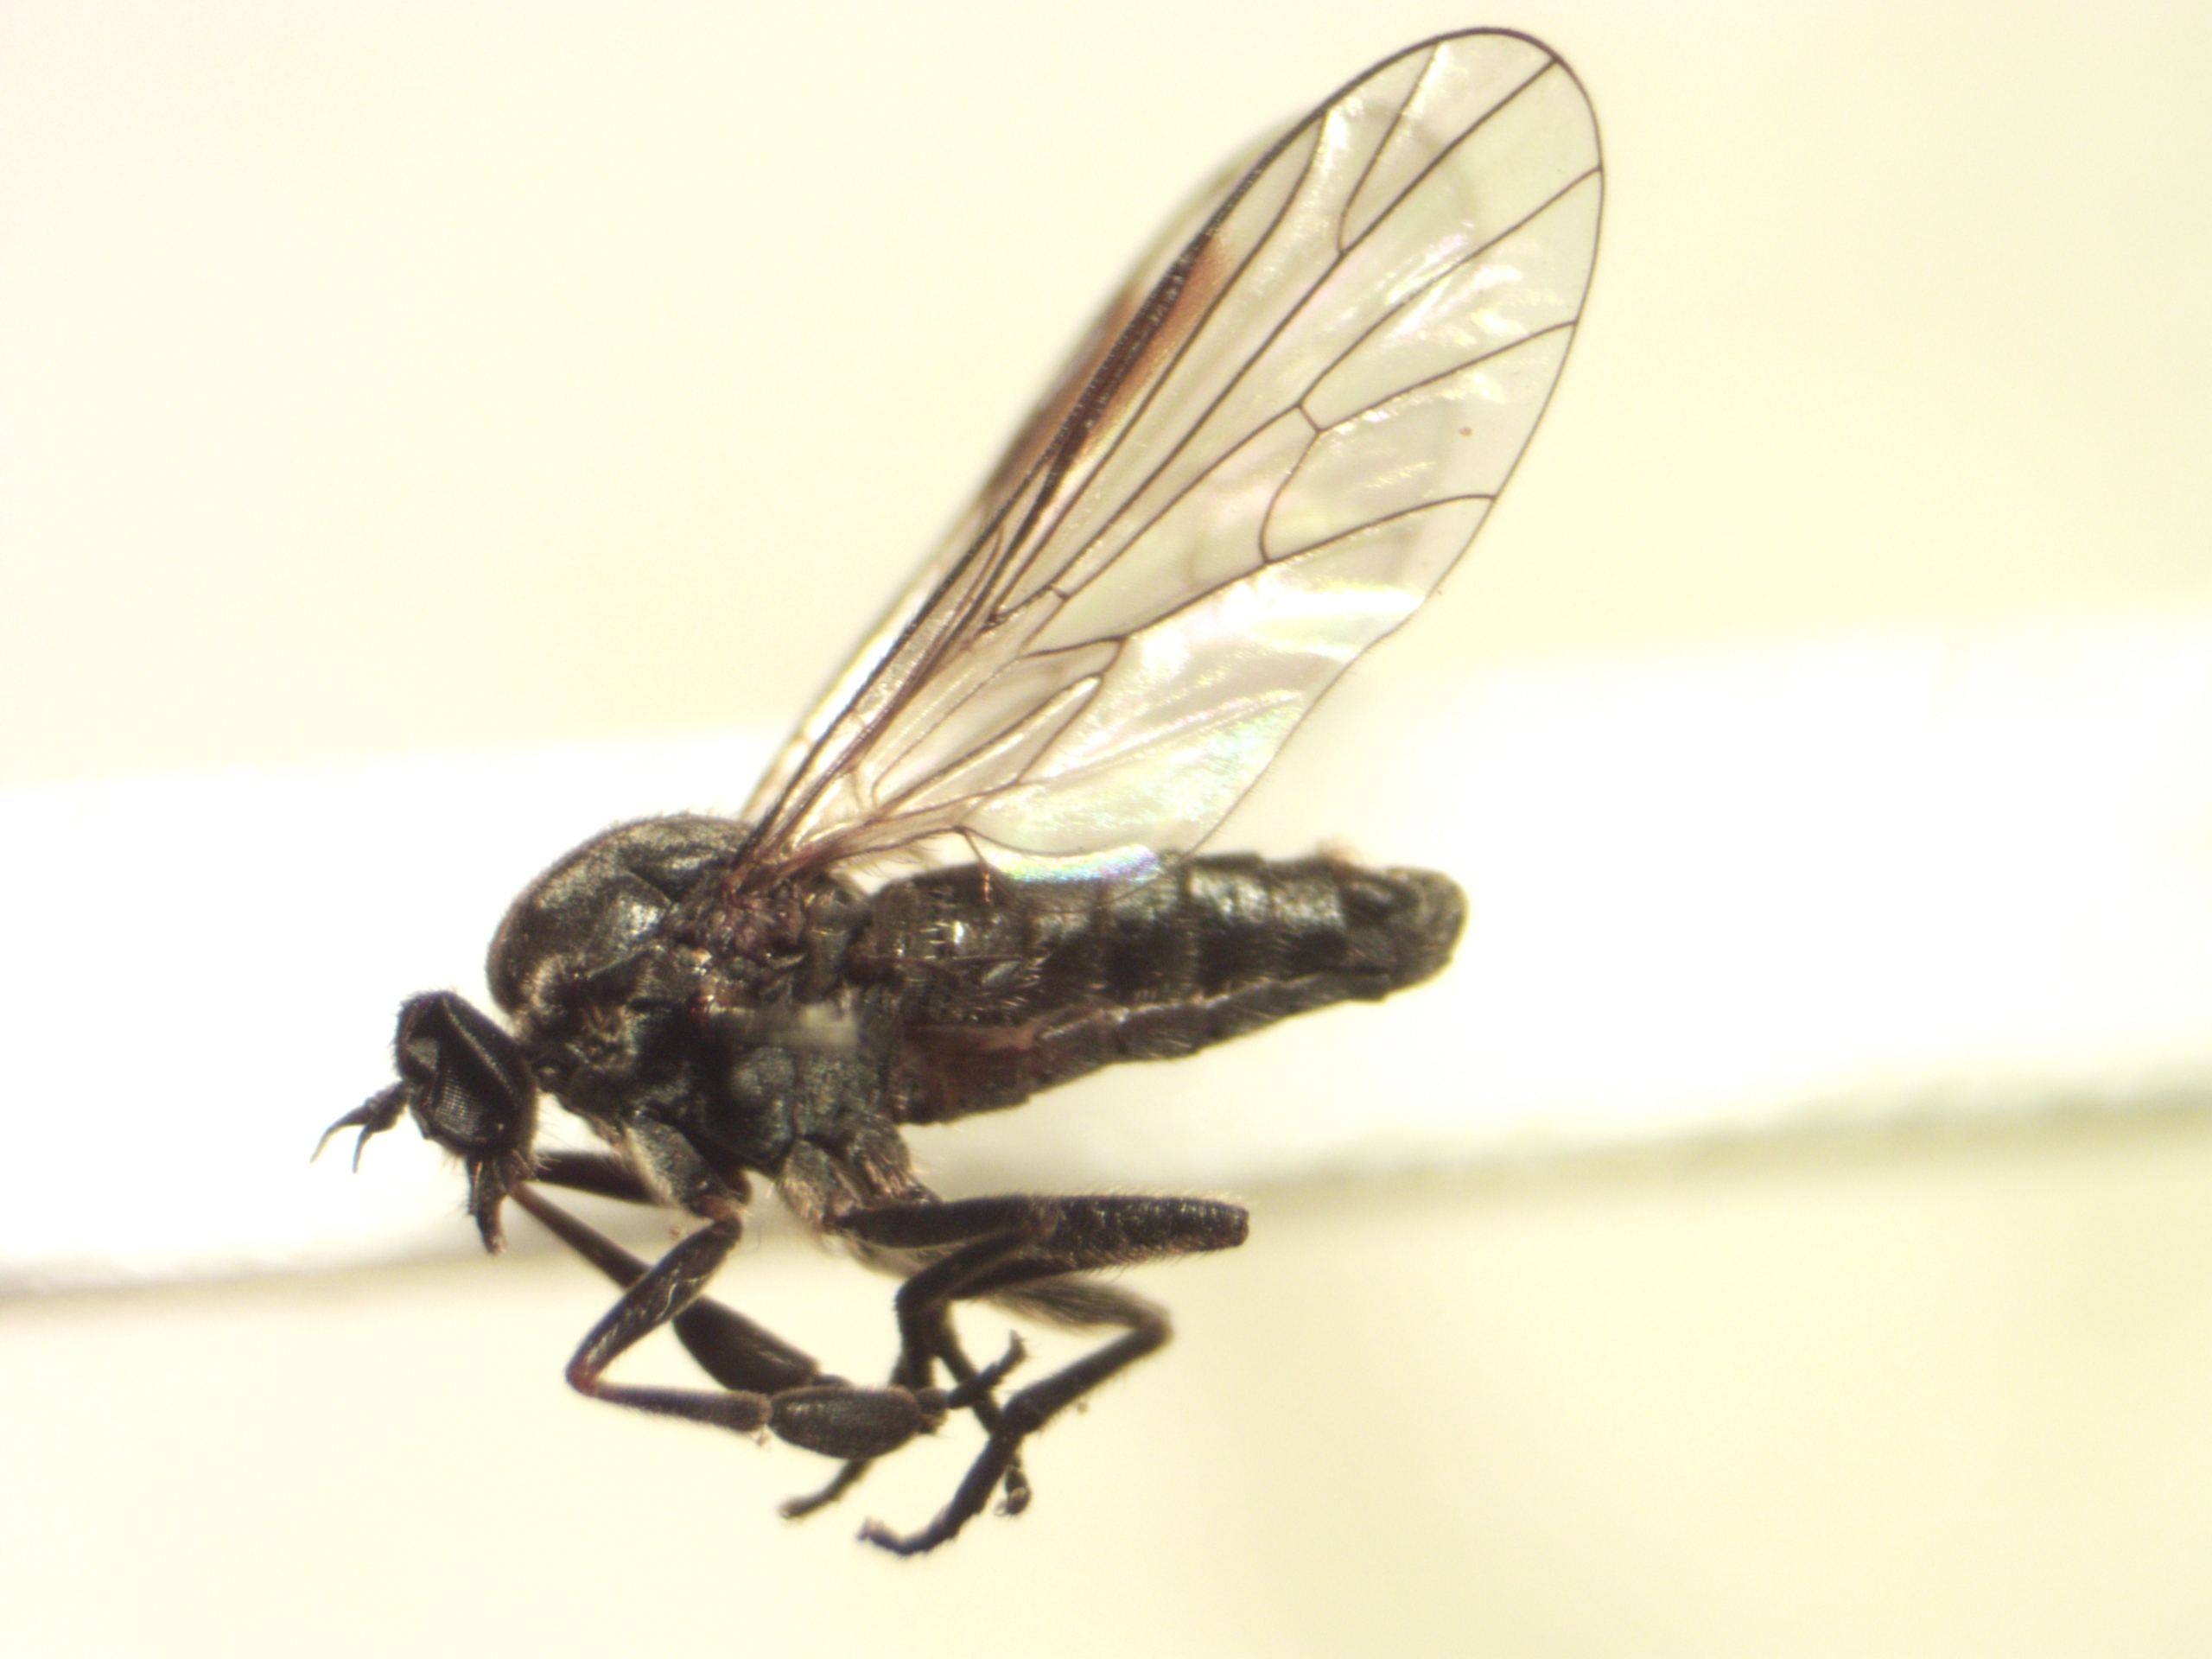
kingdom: Animalia
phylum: Arthropoda
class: Insecta
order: Diptera
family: Empididae
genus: Hilara
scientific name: Hilara maura
